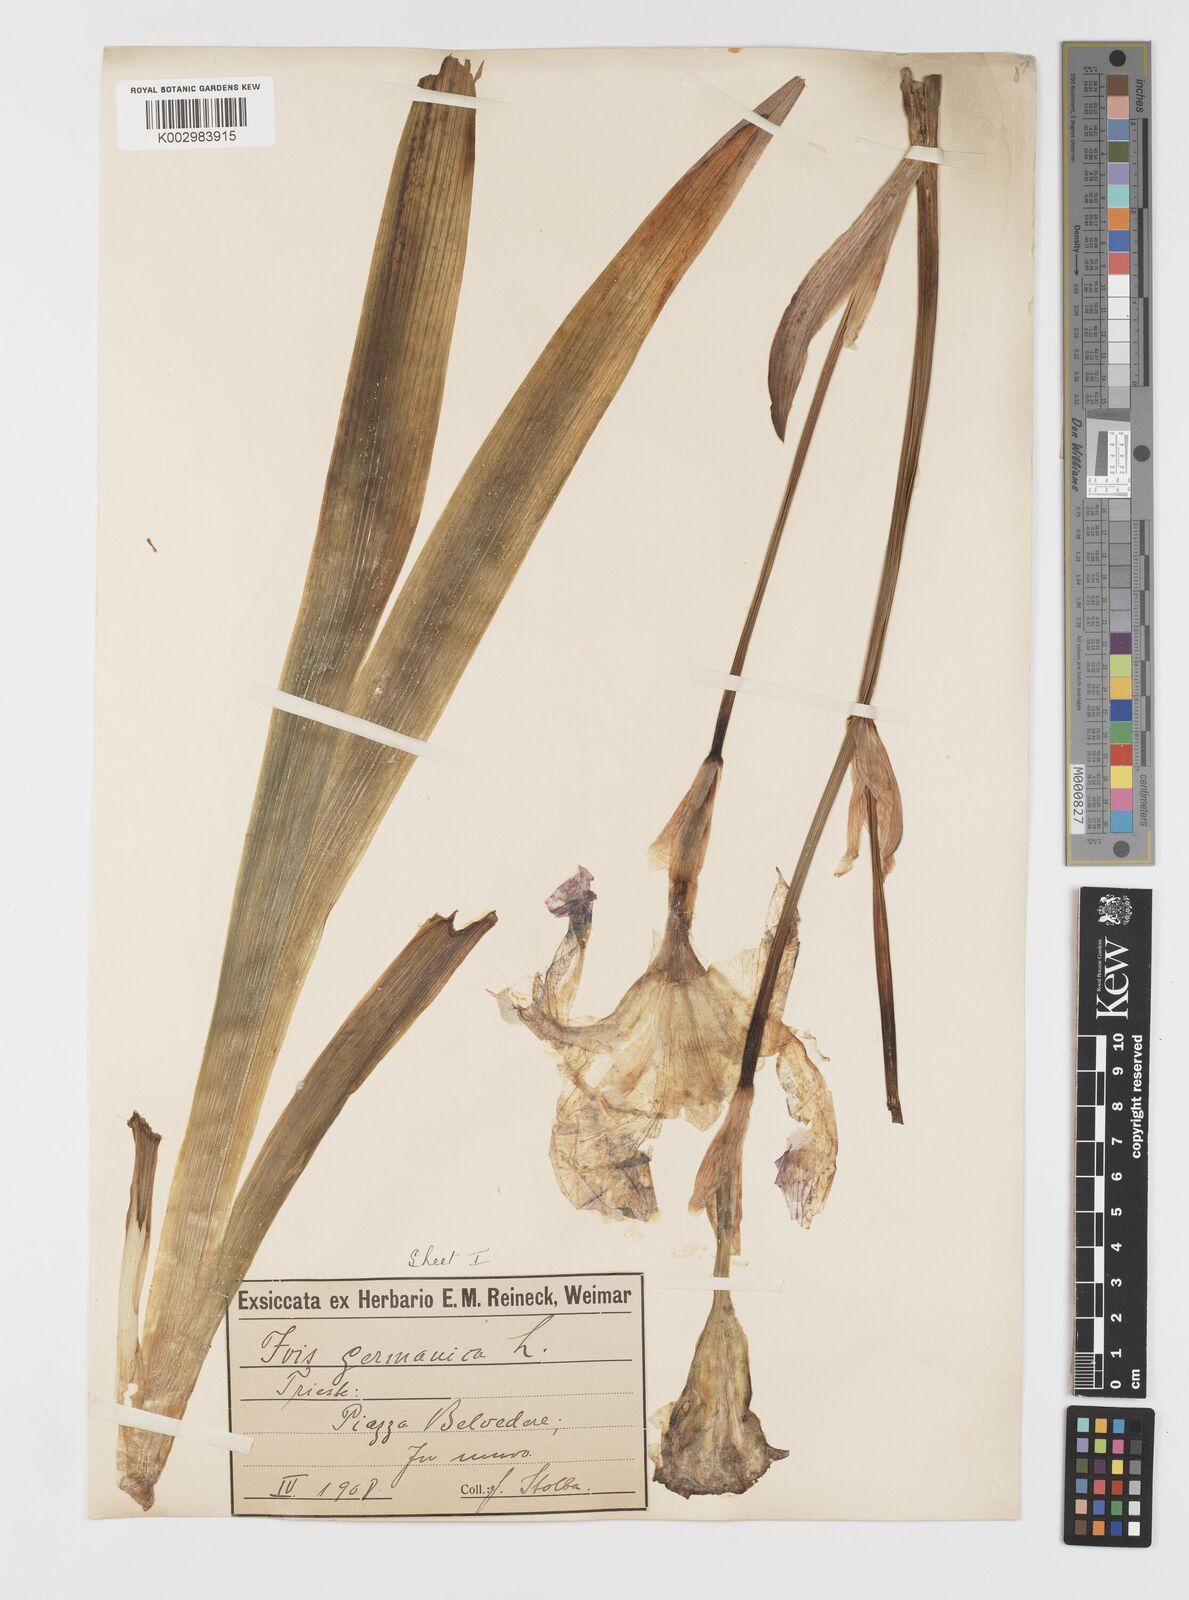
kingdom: Plantae
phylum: Tracheophyta
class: Liliopsida
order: Asparagales
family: Iridaceae
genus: Iris
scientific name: Iris germanica
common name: German iris
